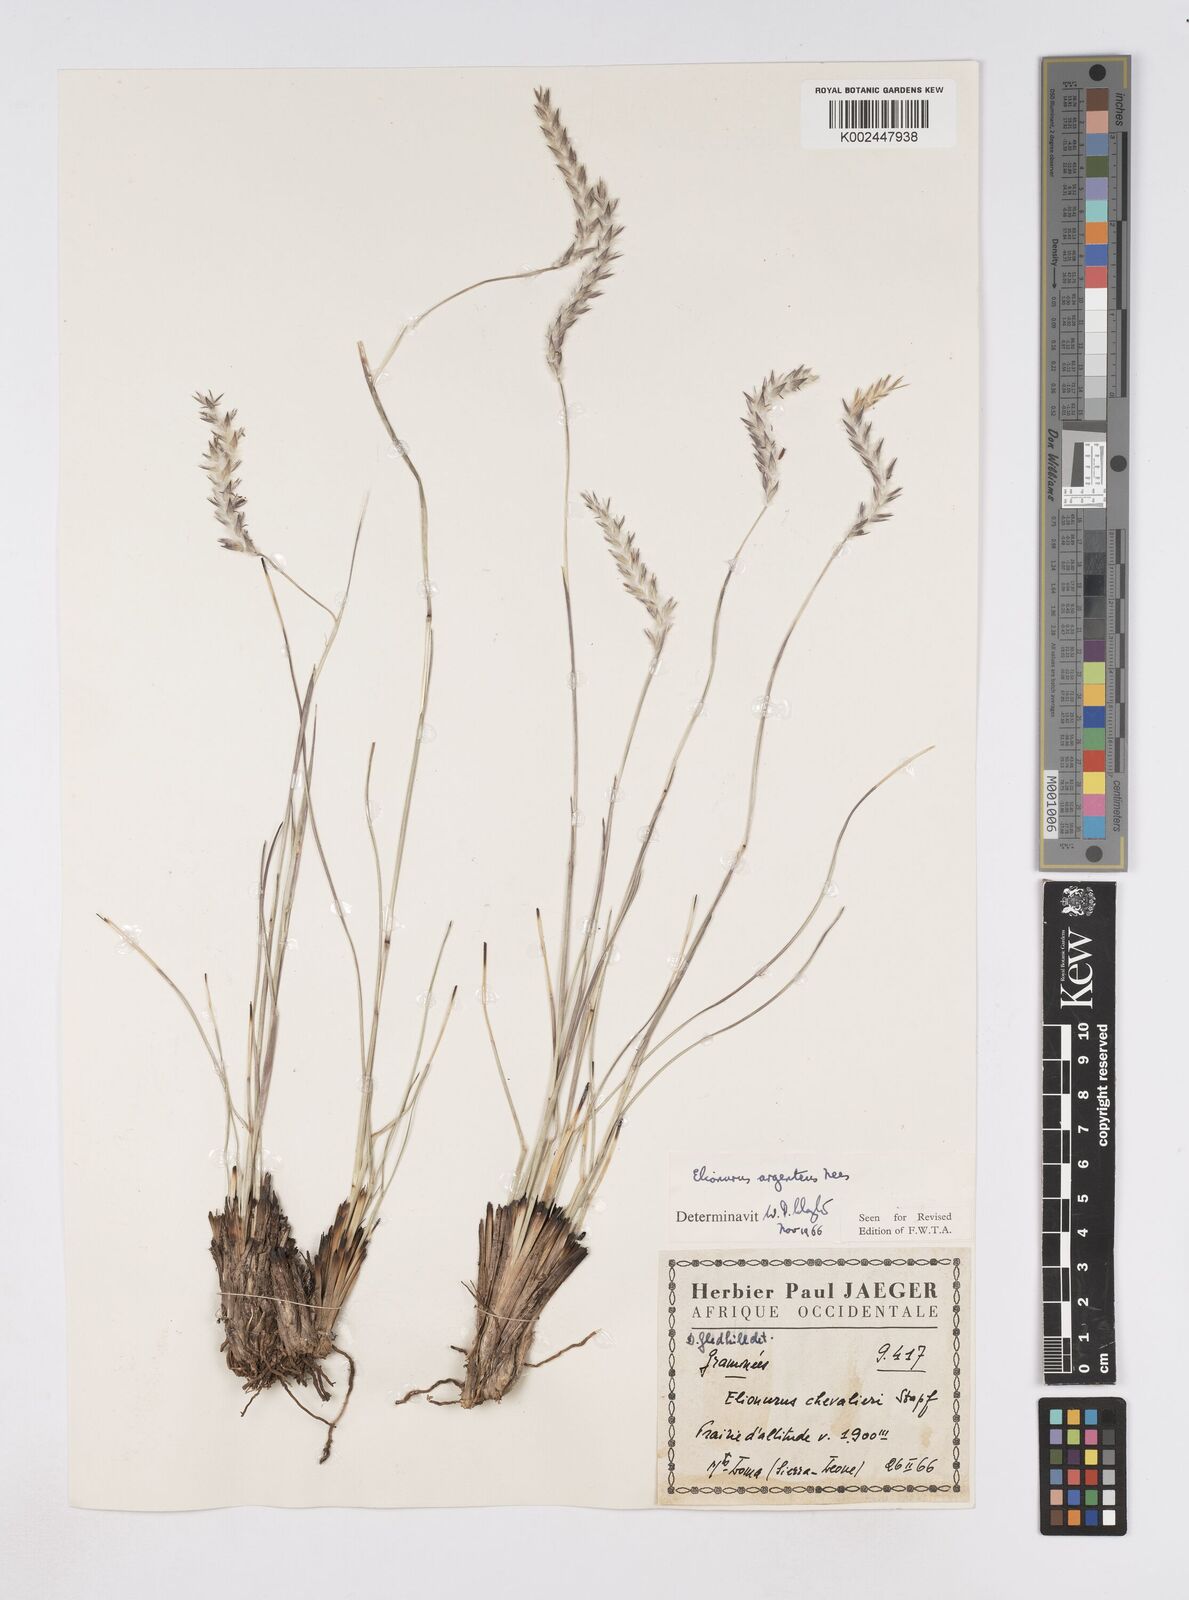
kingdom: Plantae
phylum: Tracheophyta
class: Liliopsida
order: Poales
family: Poaceae
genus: Elionurus
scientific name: Elionurus muticus
